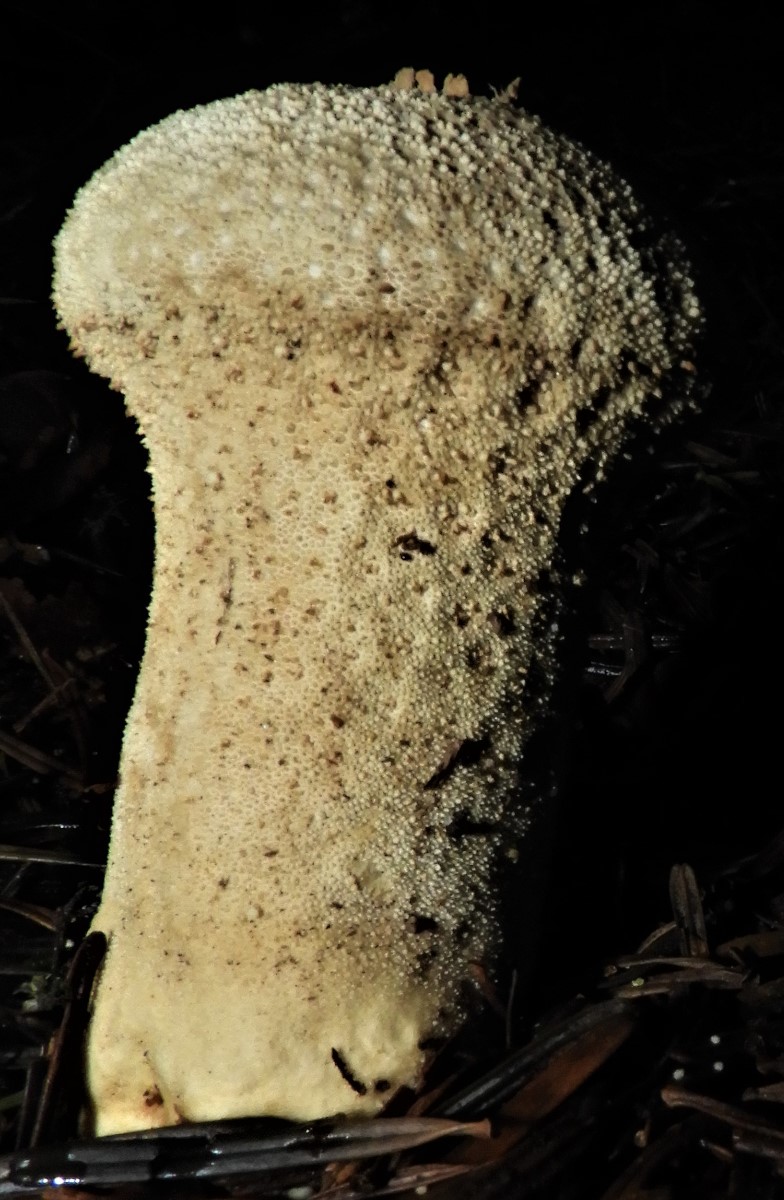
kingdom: Fungi
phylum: Basidiomycota
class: Agaricomycetes
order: Agaricales
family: Lycoperdaceae
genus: Lycoperdon
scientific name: Lycoperdon perlatum
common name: krystal-støvbold
